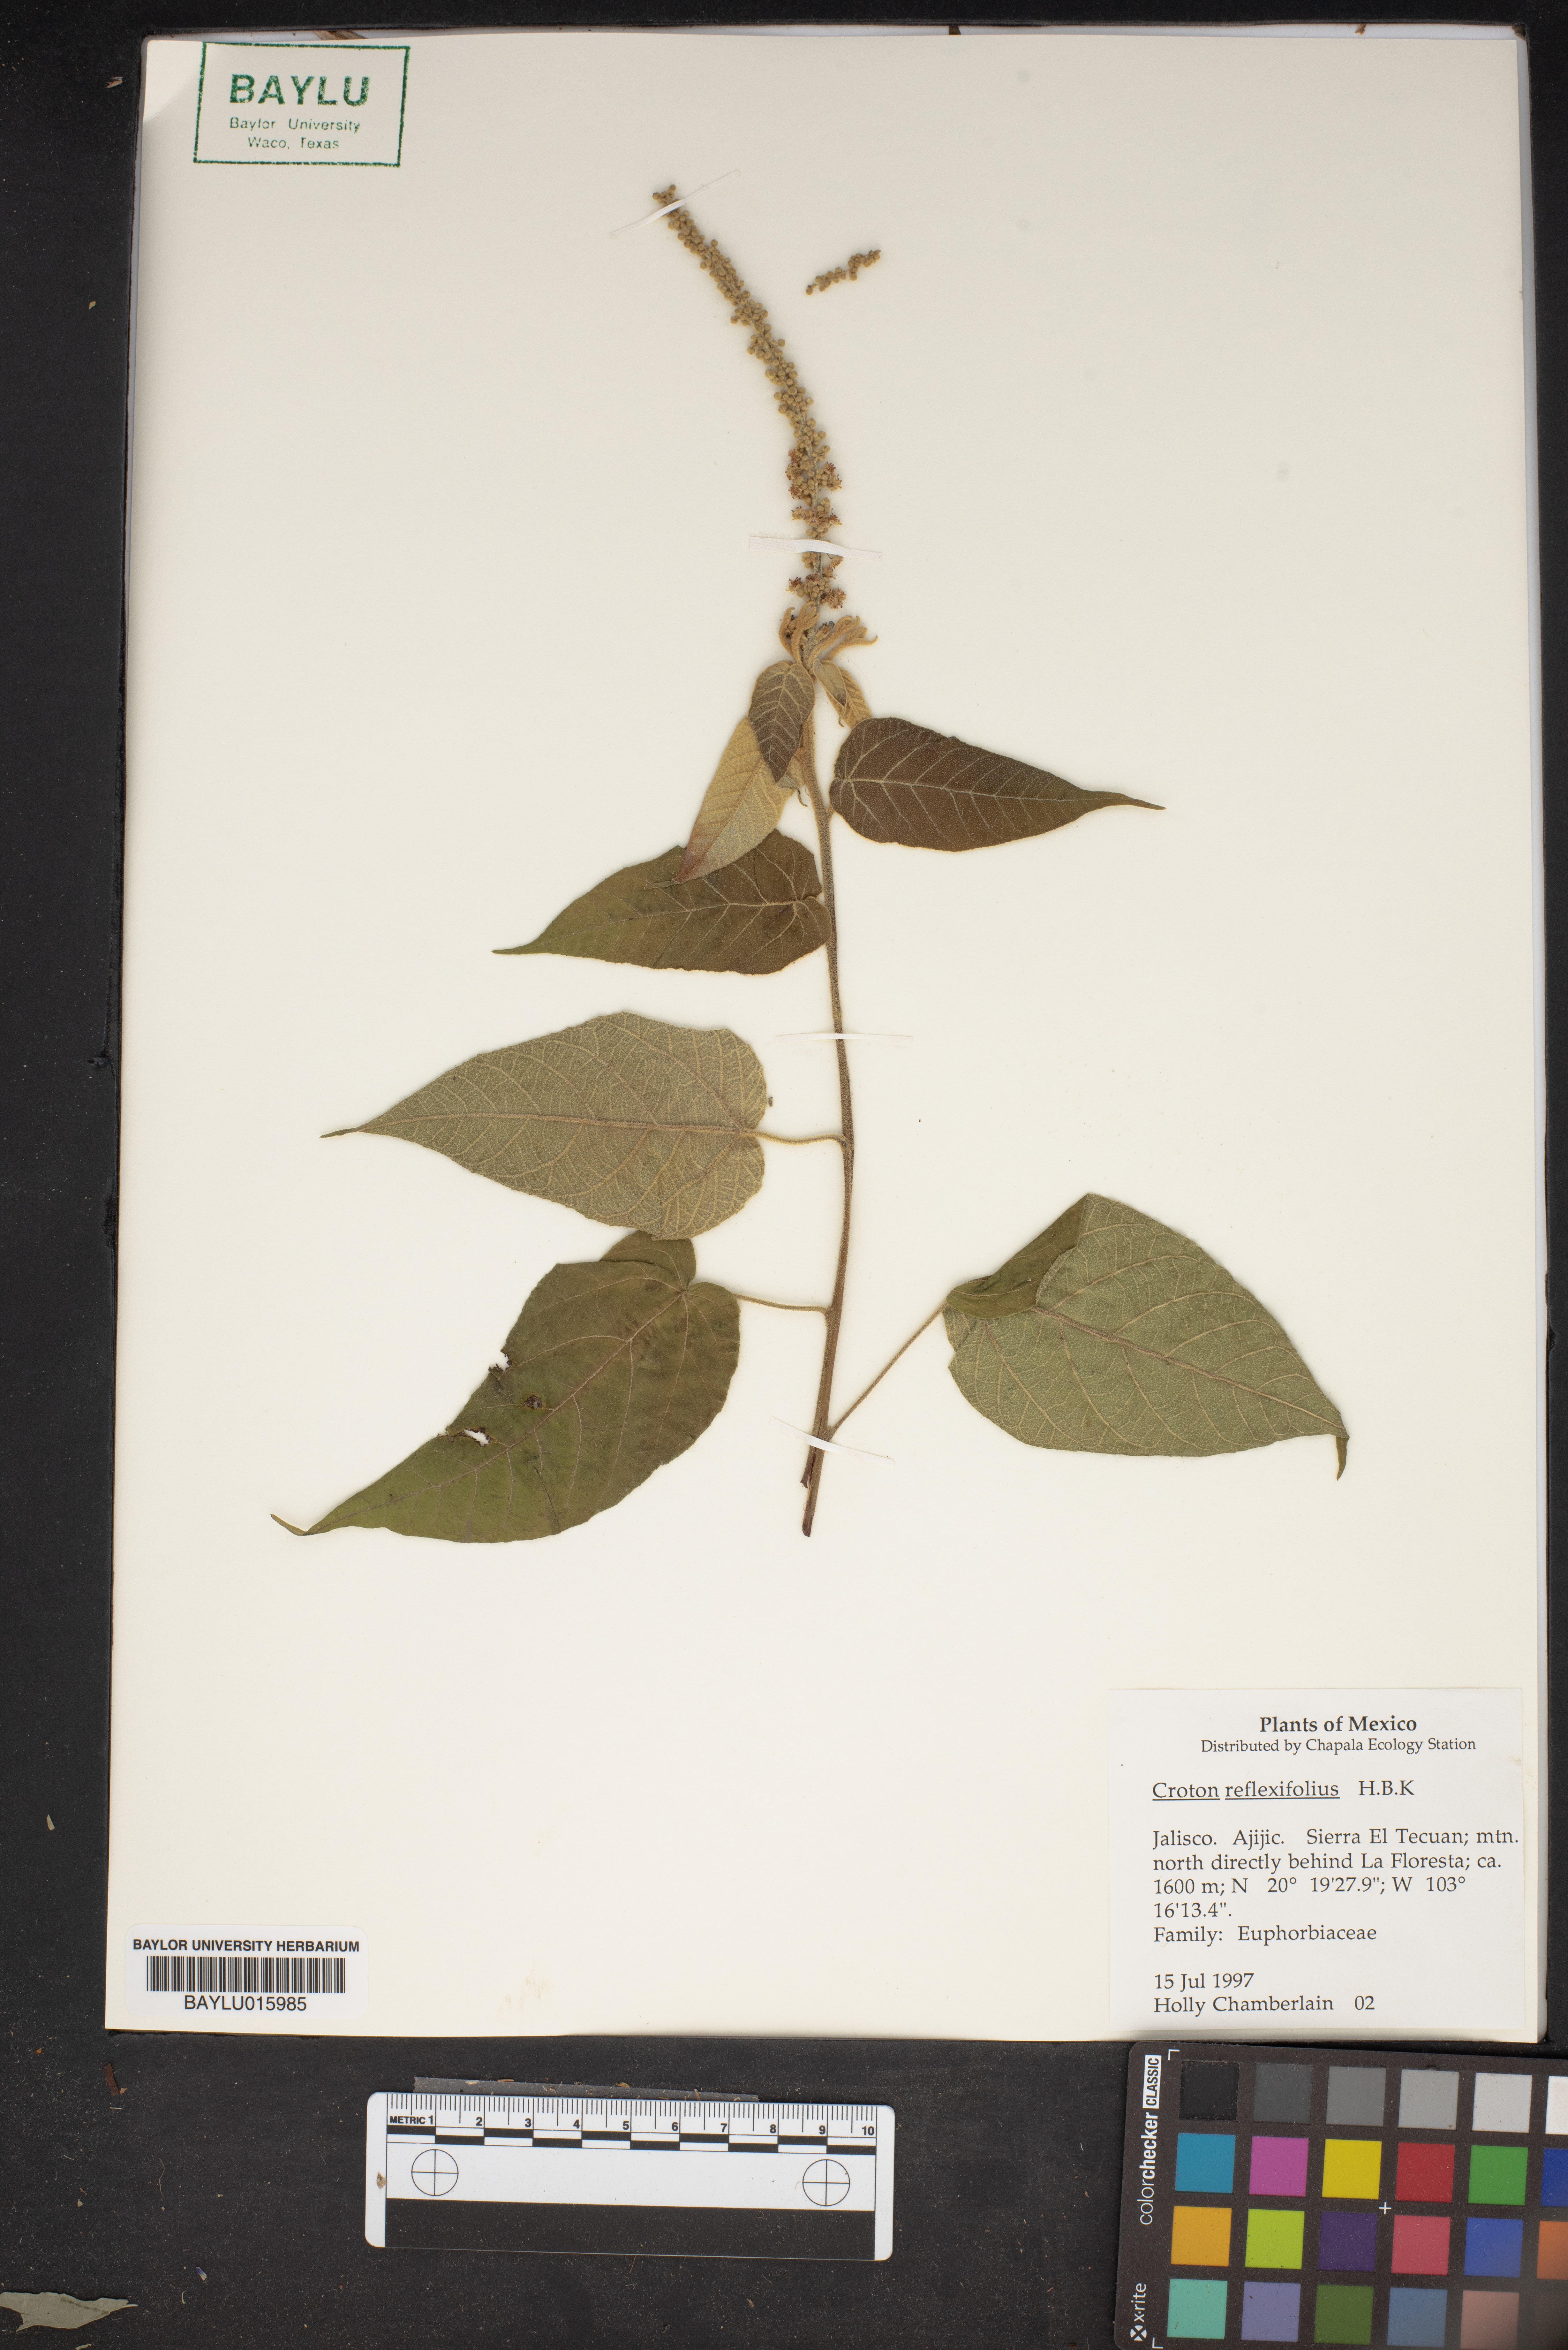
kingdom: Plantae
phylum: Tracheophyta
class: Magnoliopsida
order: Malpighiales
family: Euphorbiaceae
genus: Croton
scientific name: Croton reflexifolius
